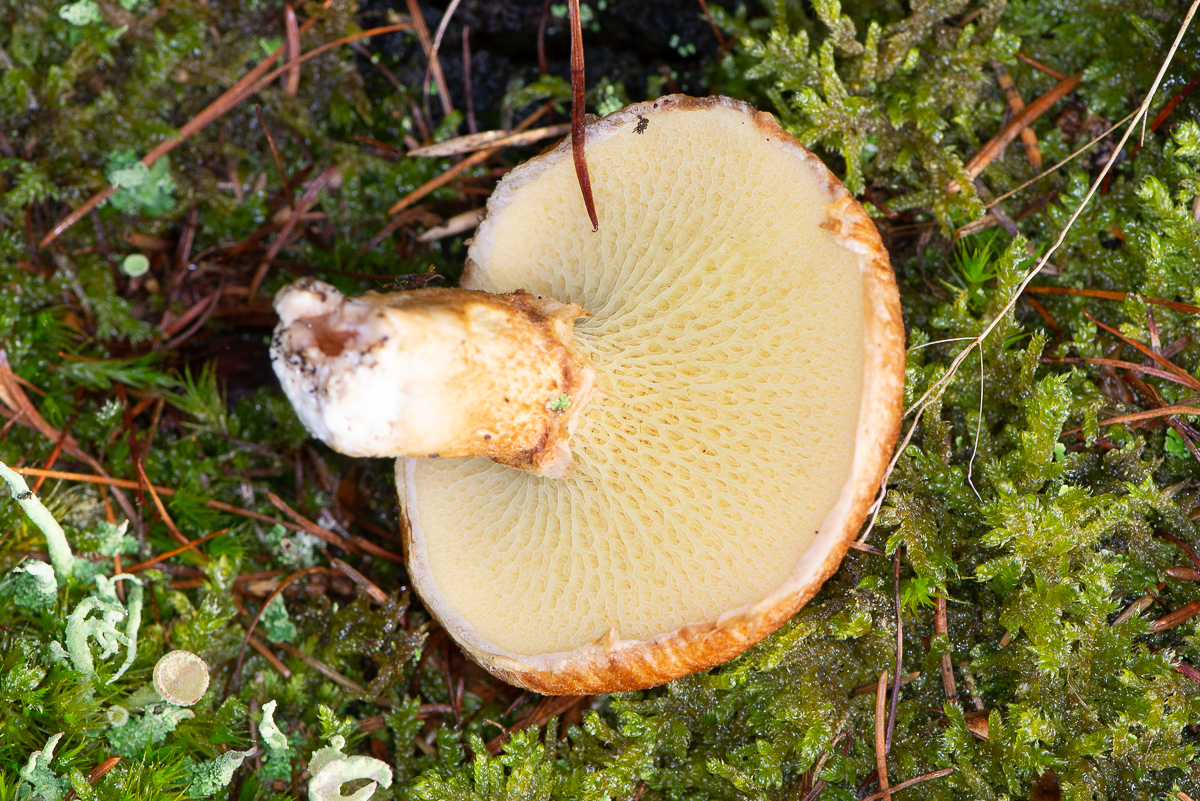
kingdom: Fungi
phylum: Basidiomycota
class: Agaricomycetes
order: Boletales
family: Suillaceae
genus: Suillus
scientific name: Suillus cavipes
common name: hulstokket slimrørhat
